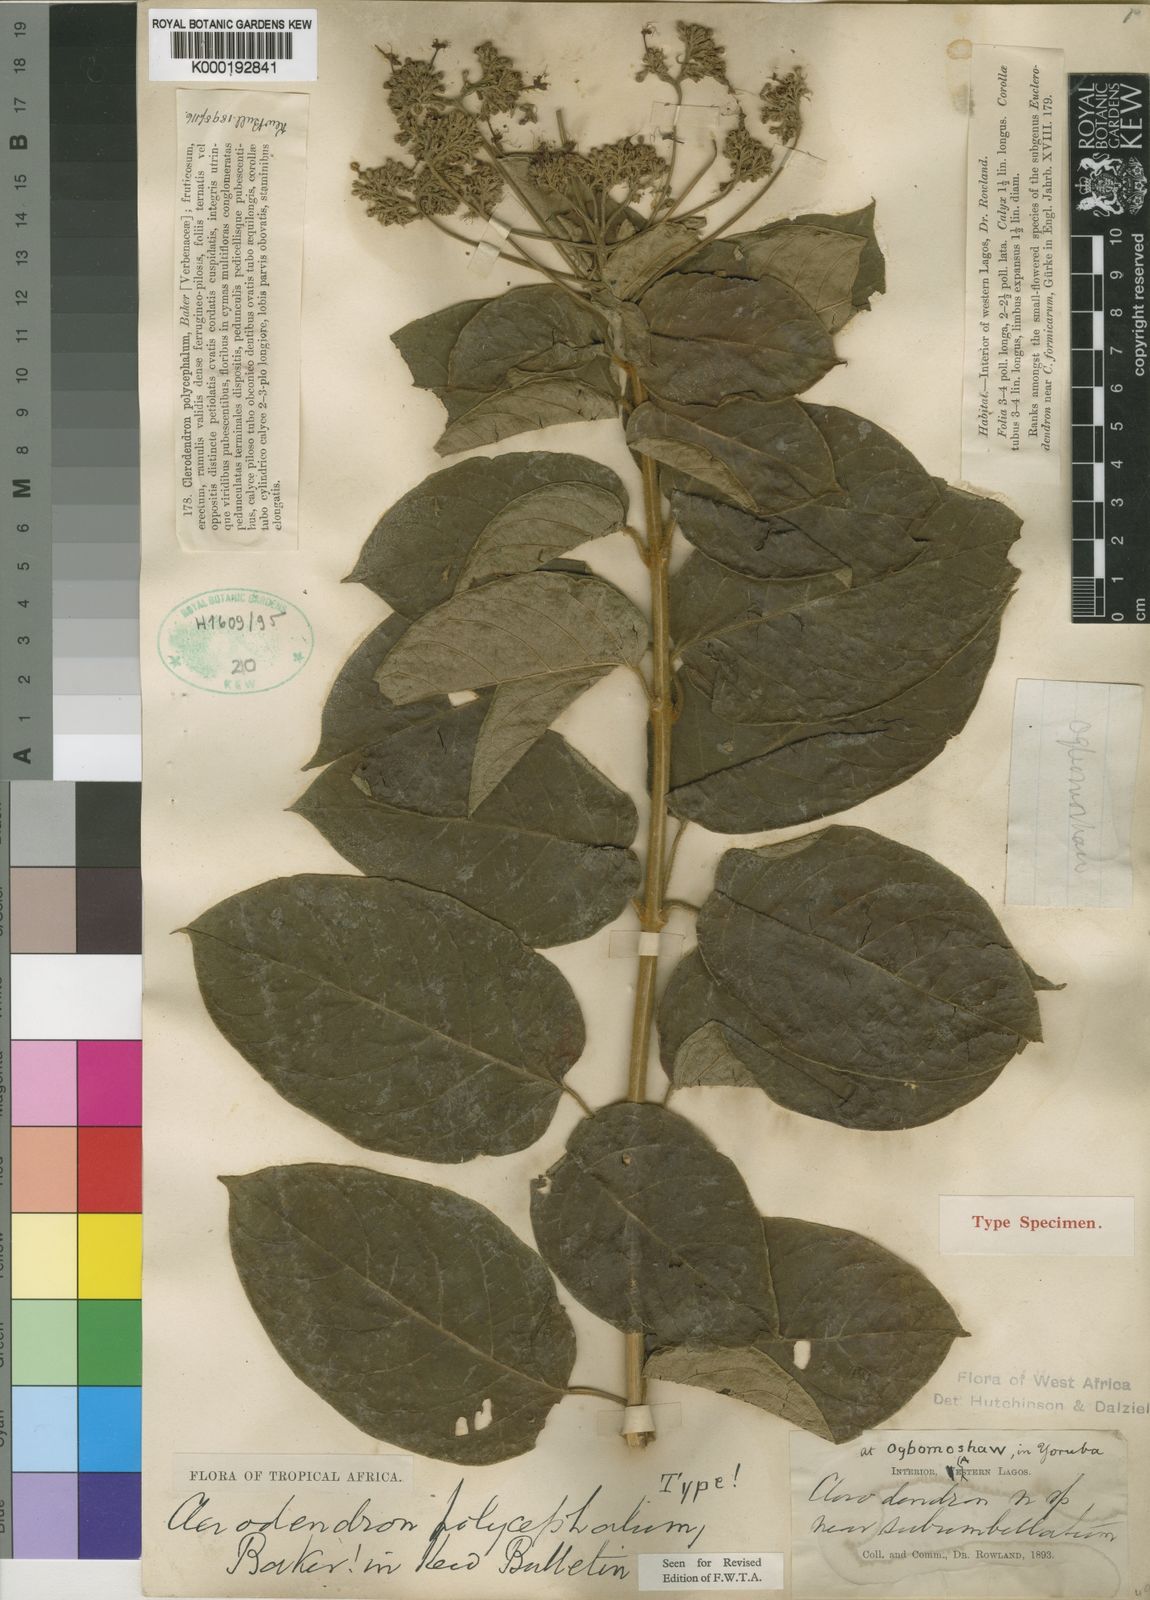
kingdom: Plantae
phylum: Tracheophyta
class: Magnoliopsida
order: Lamiales
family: Lamiaceae
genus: Clerodendrum
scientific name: Clerodendrum polycephalum
